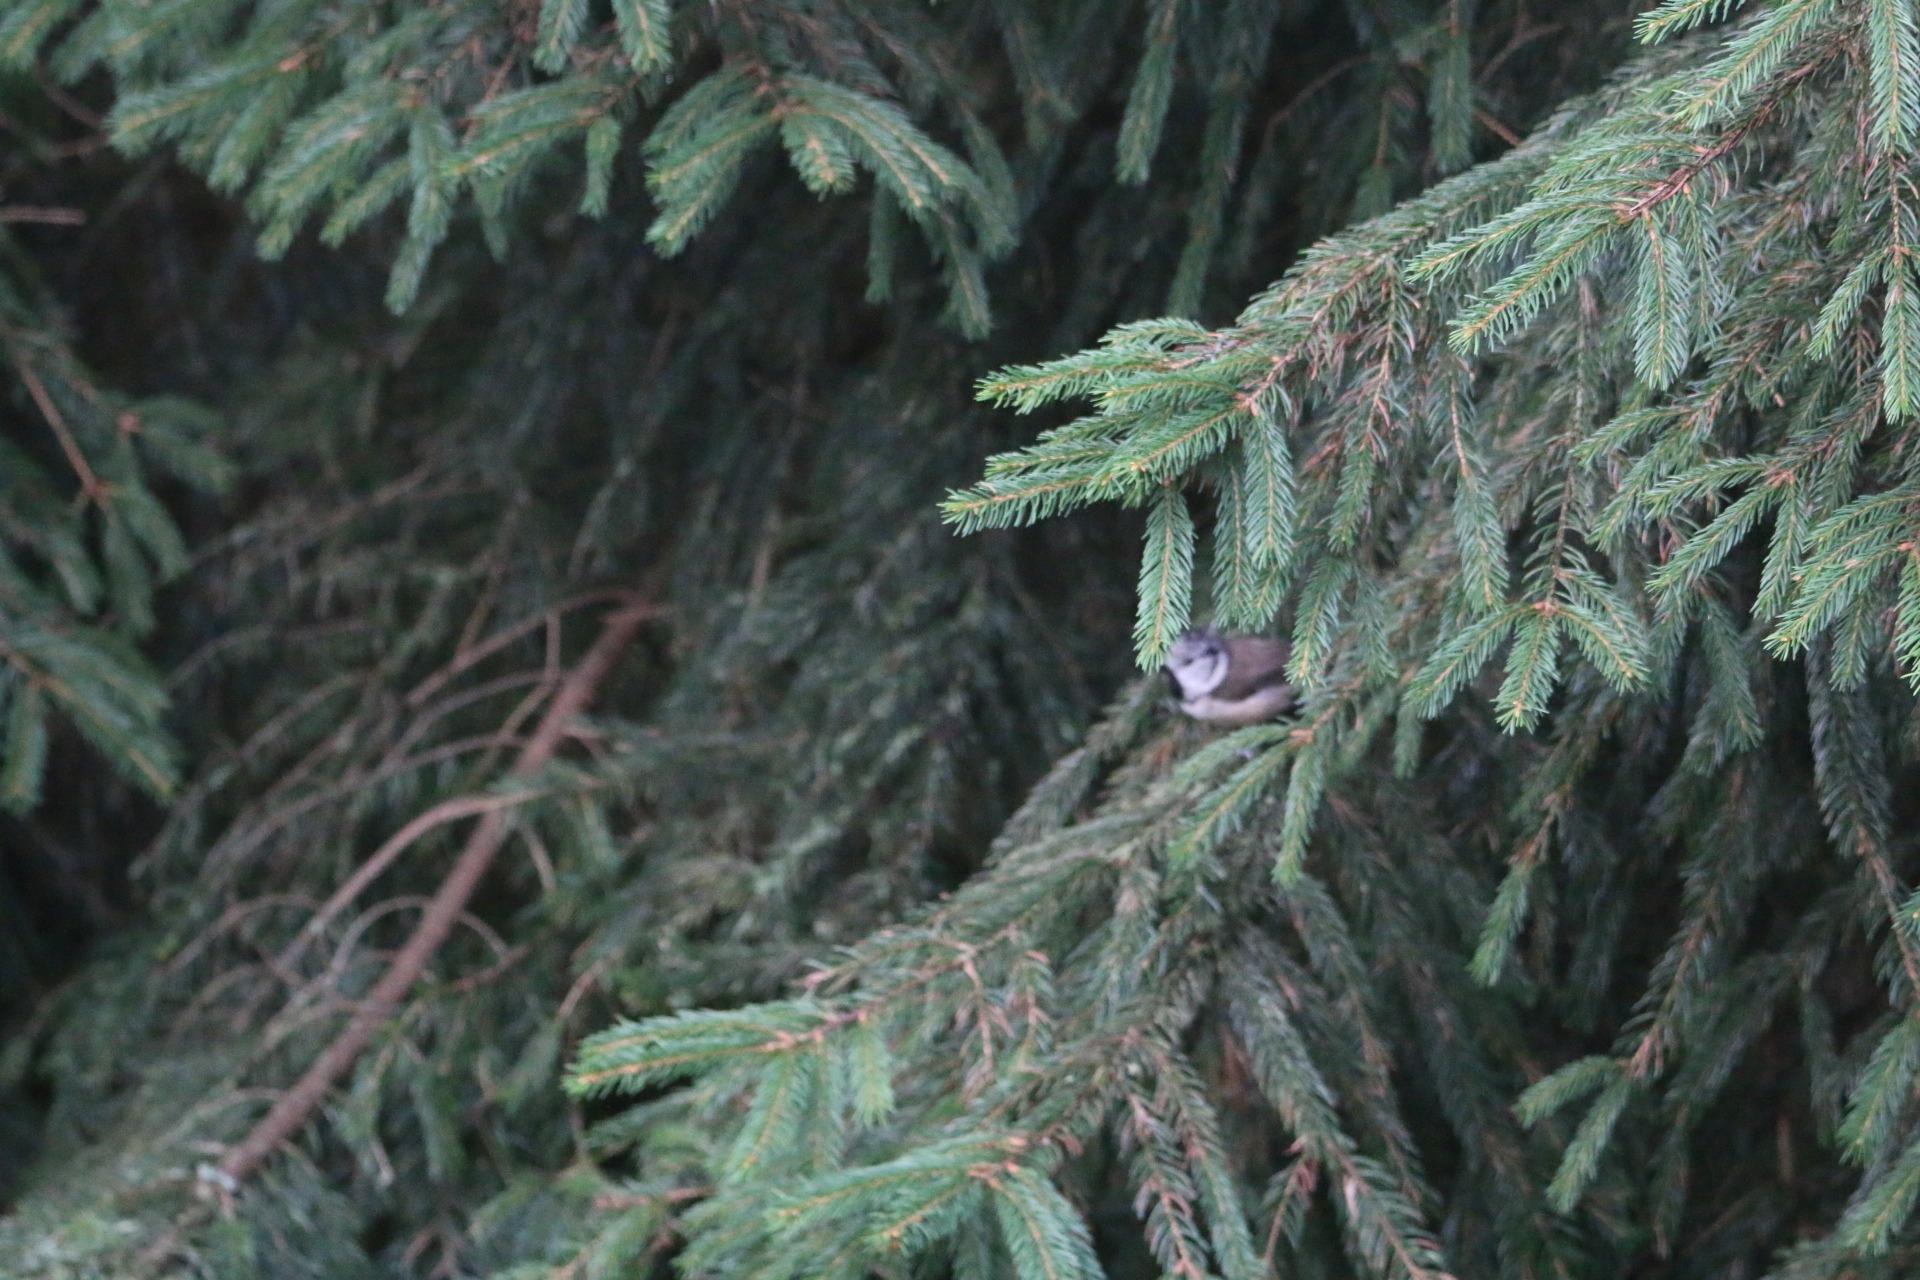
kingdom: Animalia
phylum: Chordata
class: Aves
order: Passeriformes
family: Paridae
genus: Lophophanes
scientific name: Lophophanes cristatus
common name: Topmejse
